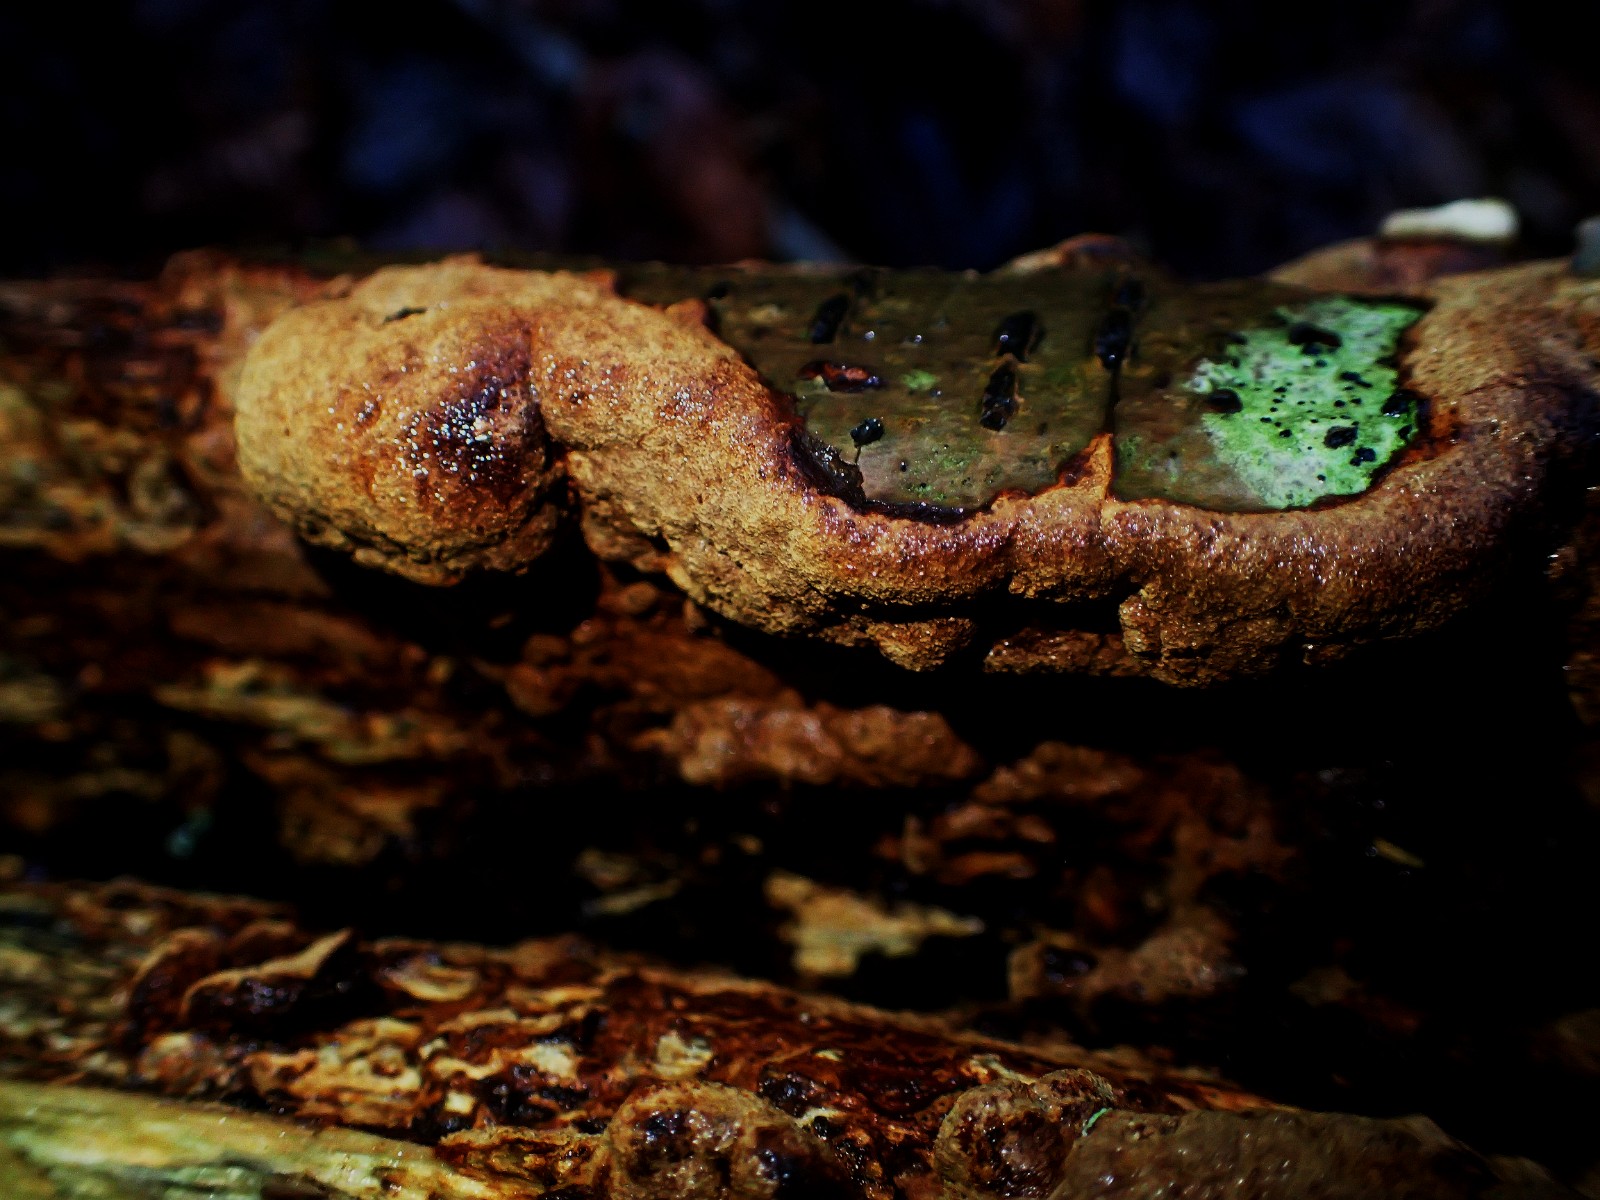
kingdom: Fungi
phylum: Basidiomycota
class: Agaricomycetes
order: Hymenochaetales
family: Hymenochaetaceae
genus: Fuscoporia
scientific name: Fuscoporia
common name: Ildporesvamp
